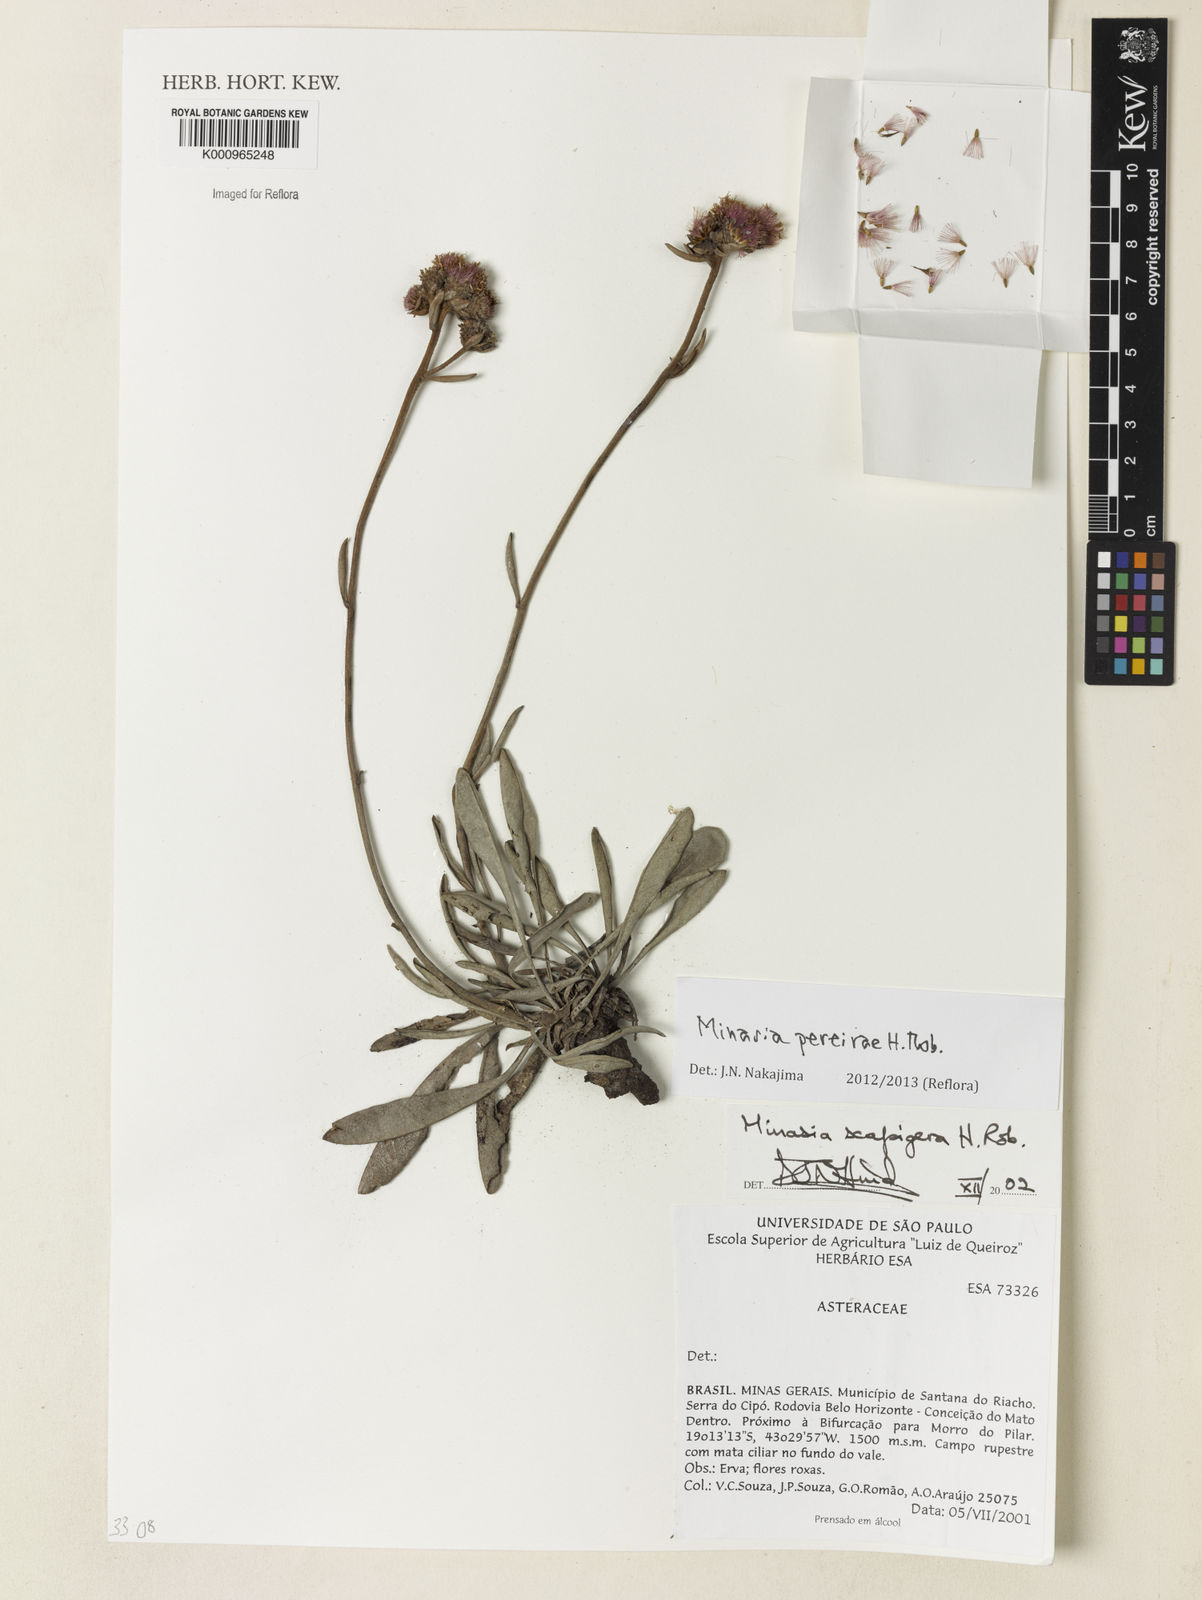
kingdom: Plantae
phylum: Tracheophyta
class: Magnoliopsida
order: Asterales
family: Asteraceae
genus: Minasia
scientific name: Minasia pereirae
